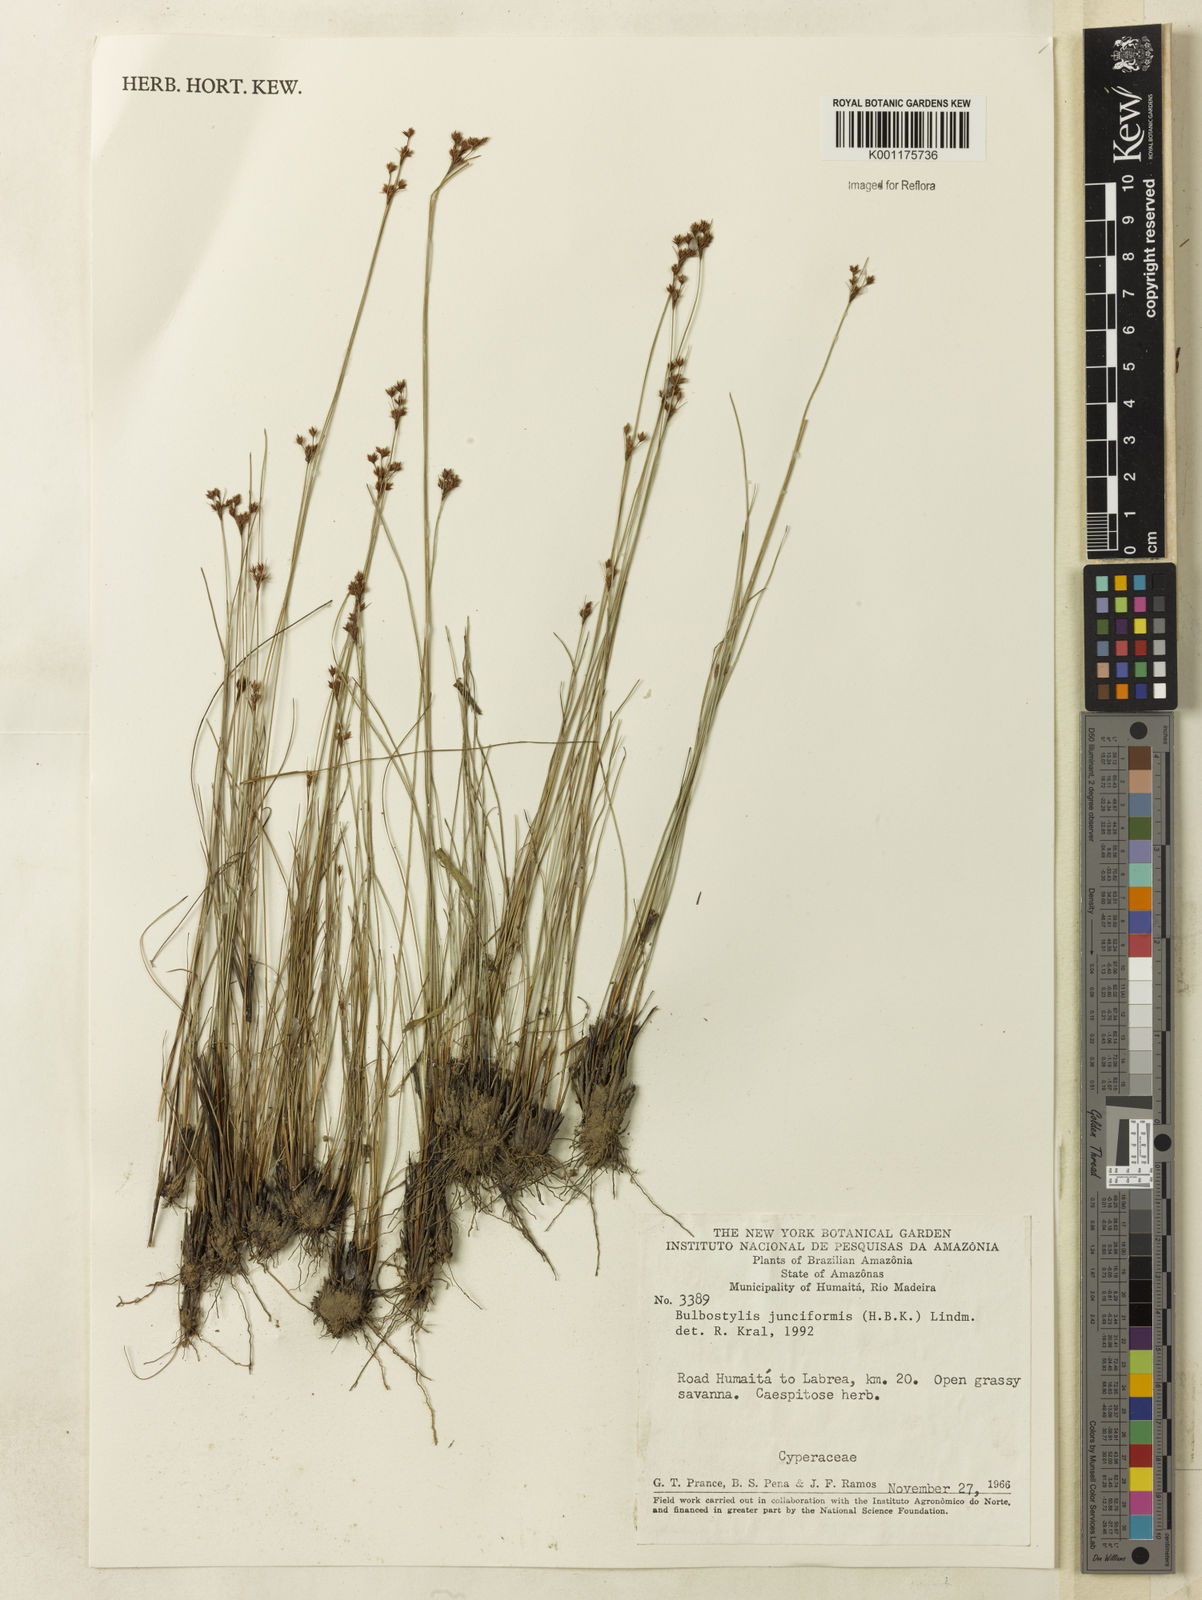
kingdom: Plantae
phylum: Tracheophyta
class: Liliopsida
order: Poales
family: Cyperaceae
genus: Bulbostylis
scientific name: Bulbostylis junciformis
